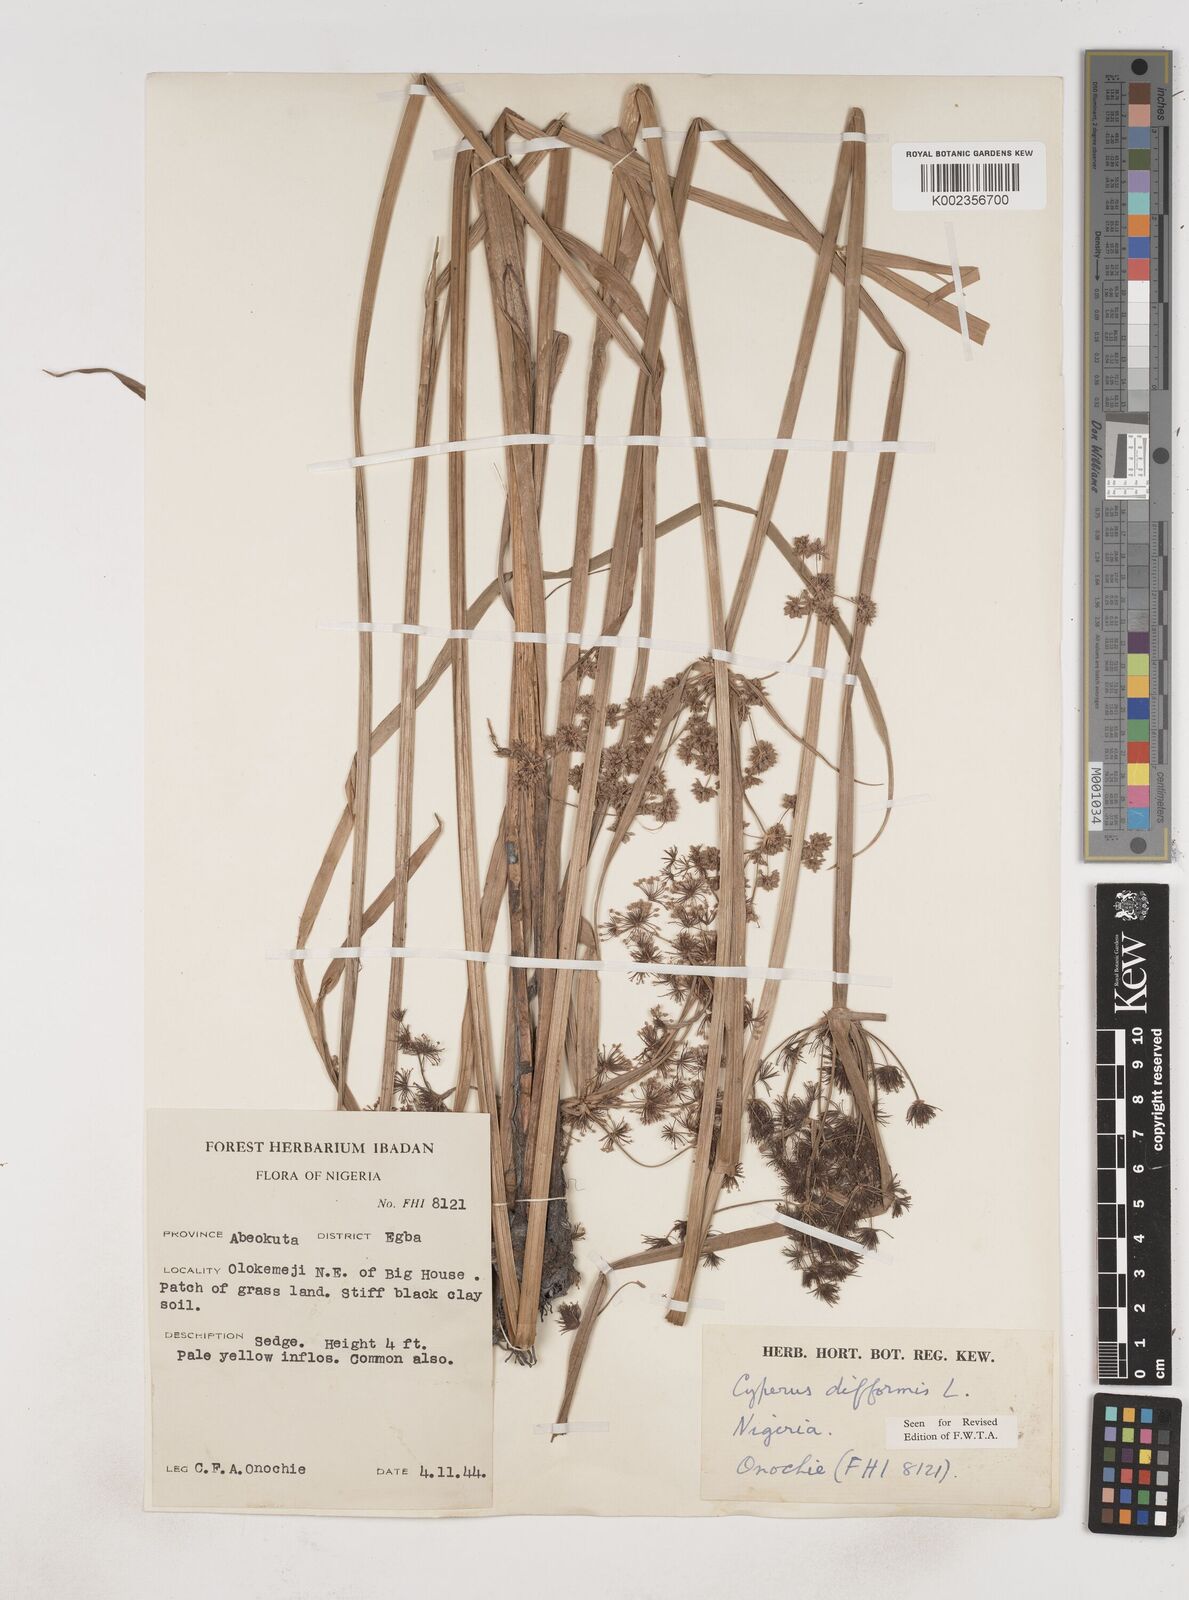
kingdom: Plantae
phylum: Tracheophyta
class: Liliopsida
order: Poales
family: Cyperaceae
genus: Cyperus
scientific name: Cyperus difformis
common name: Variable flatsedge
